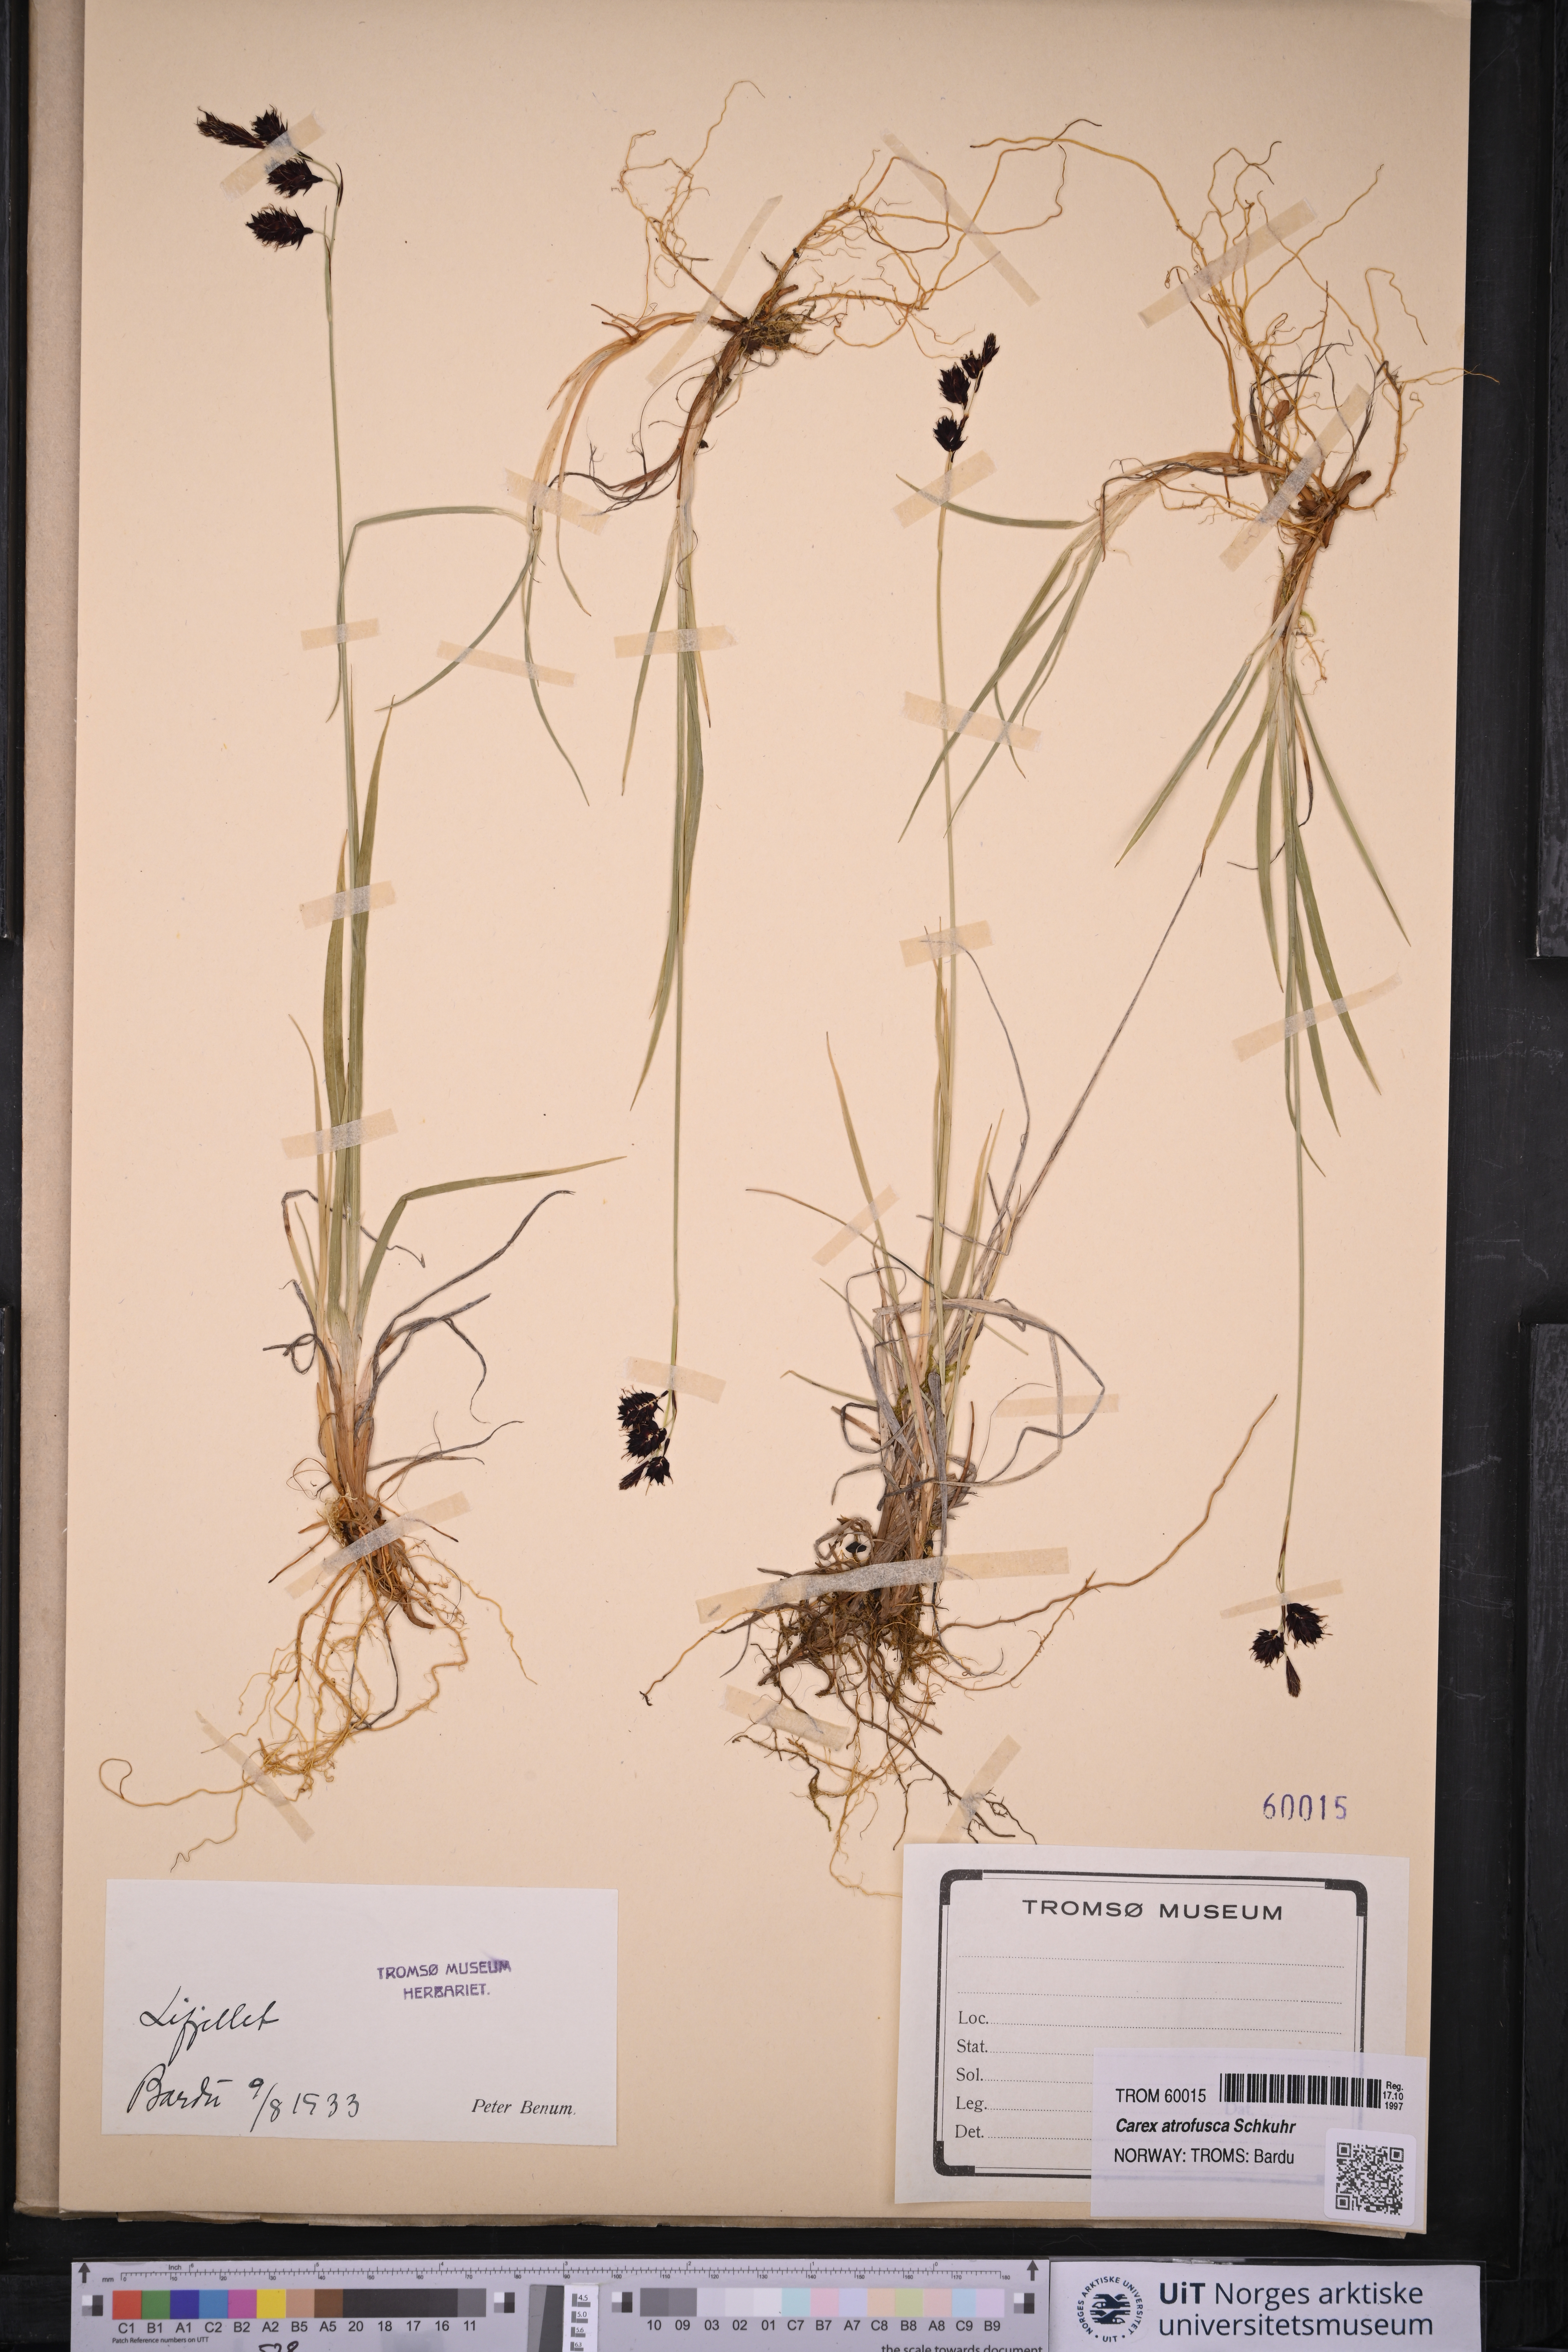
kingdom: Plantae
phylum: Tracheophyta
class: Liliopsida
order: Poales
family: Cyperaceae
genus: Carex
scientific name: Carex atrofusca
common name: Scorched alpine-sedge
